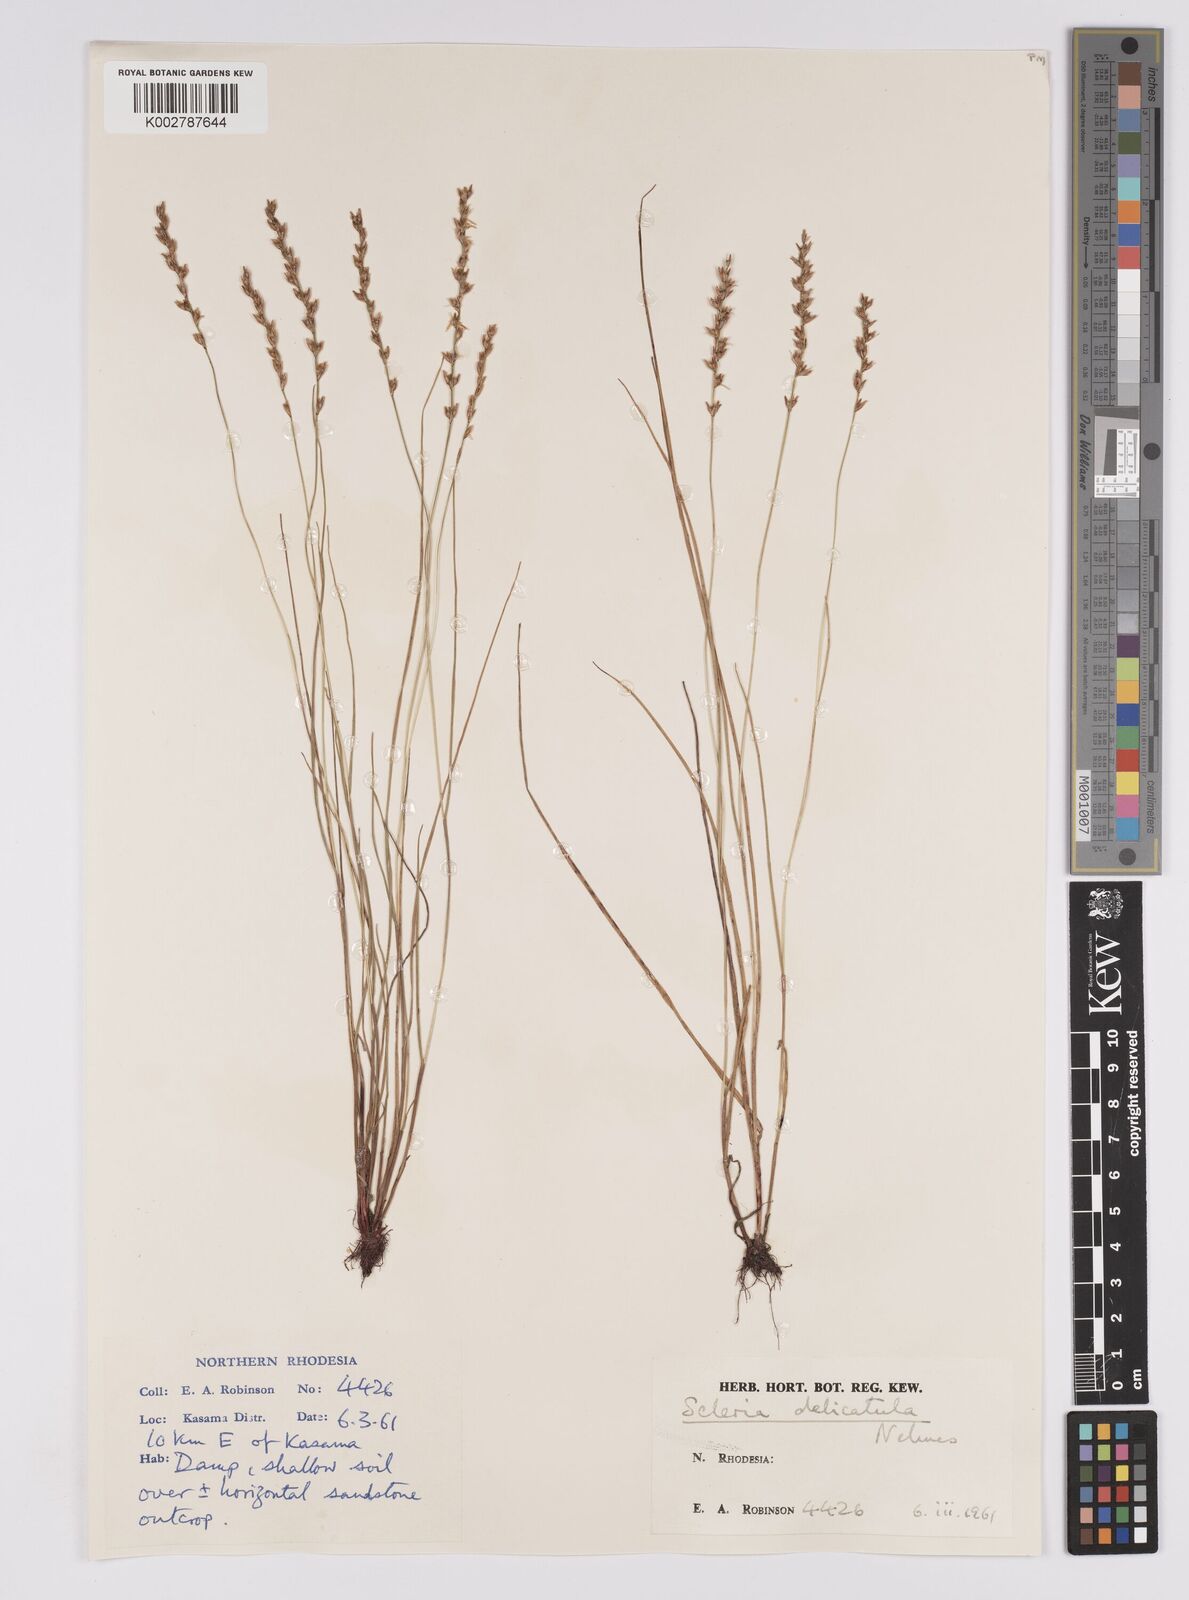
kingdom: Plantae
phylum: Tracheophyta
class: Liliopsida
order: Poales
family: Cyperaceae
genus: Scleria
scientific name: Scleria delicatula
